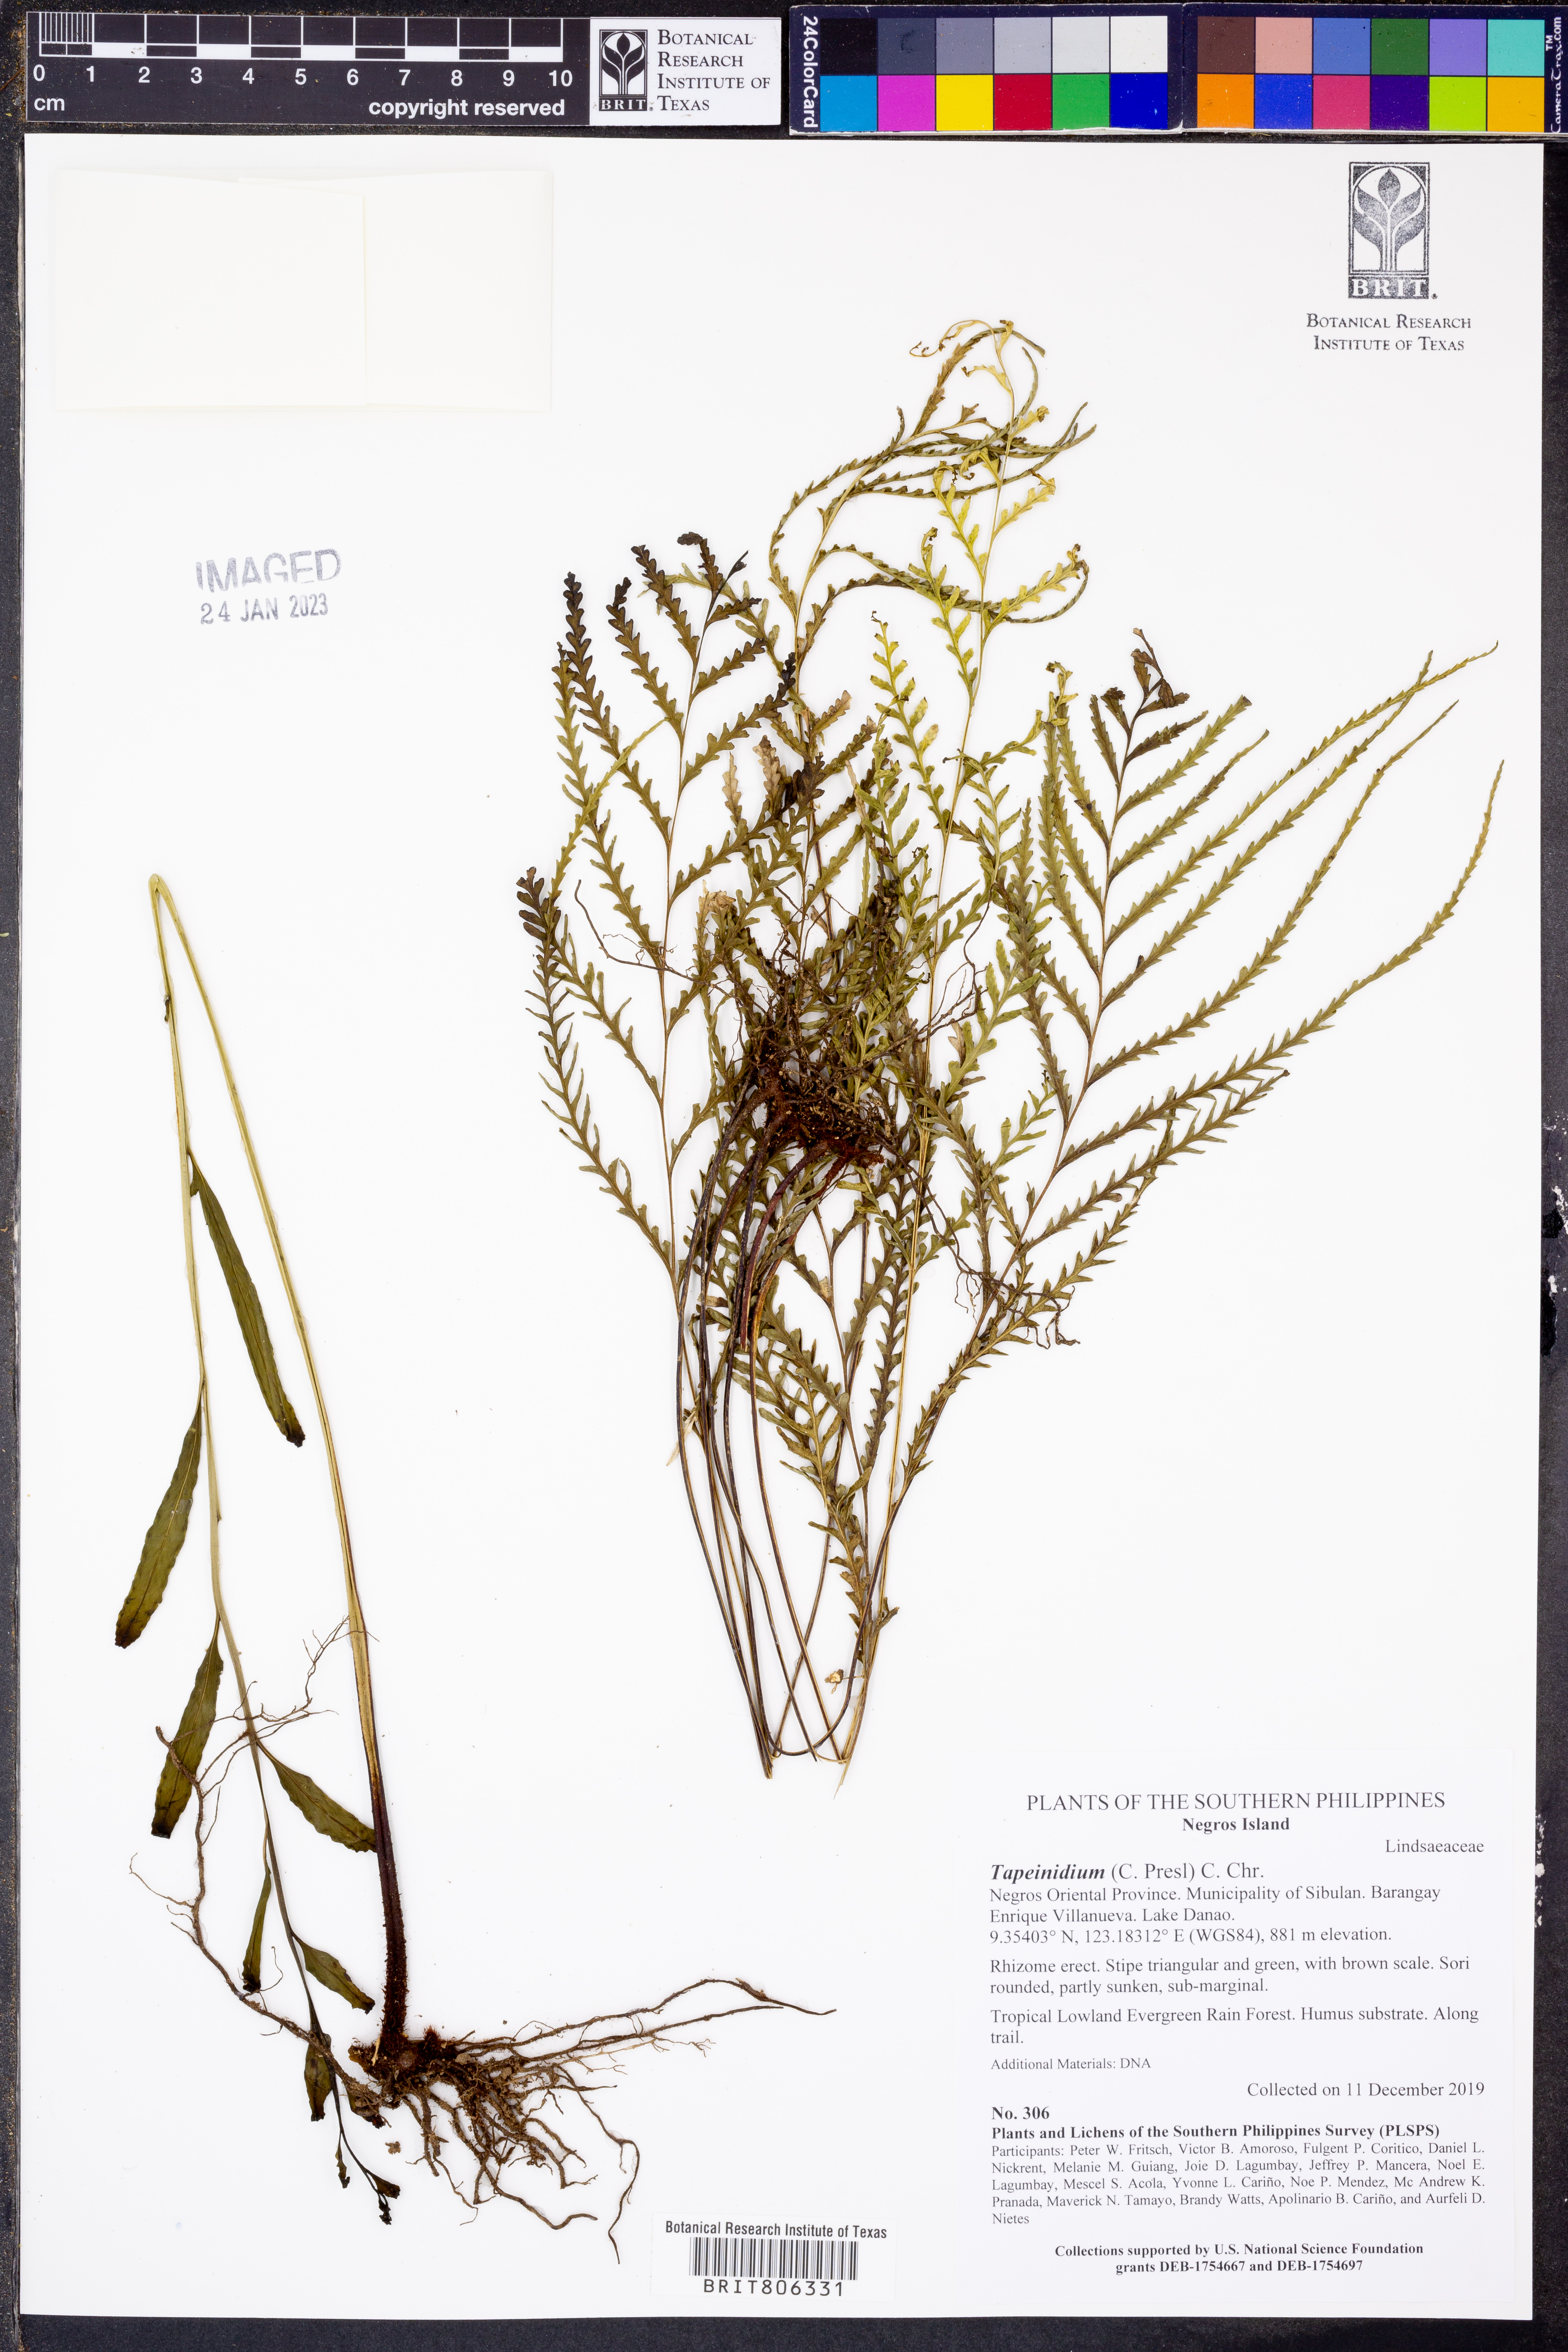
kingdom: Plantae
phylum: Tracheophyta
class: Polypodiopsida
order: Polypodiales
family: Lindsaeaceae
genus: Tapeinidium
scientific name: Tapeinidium
